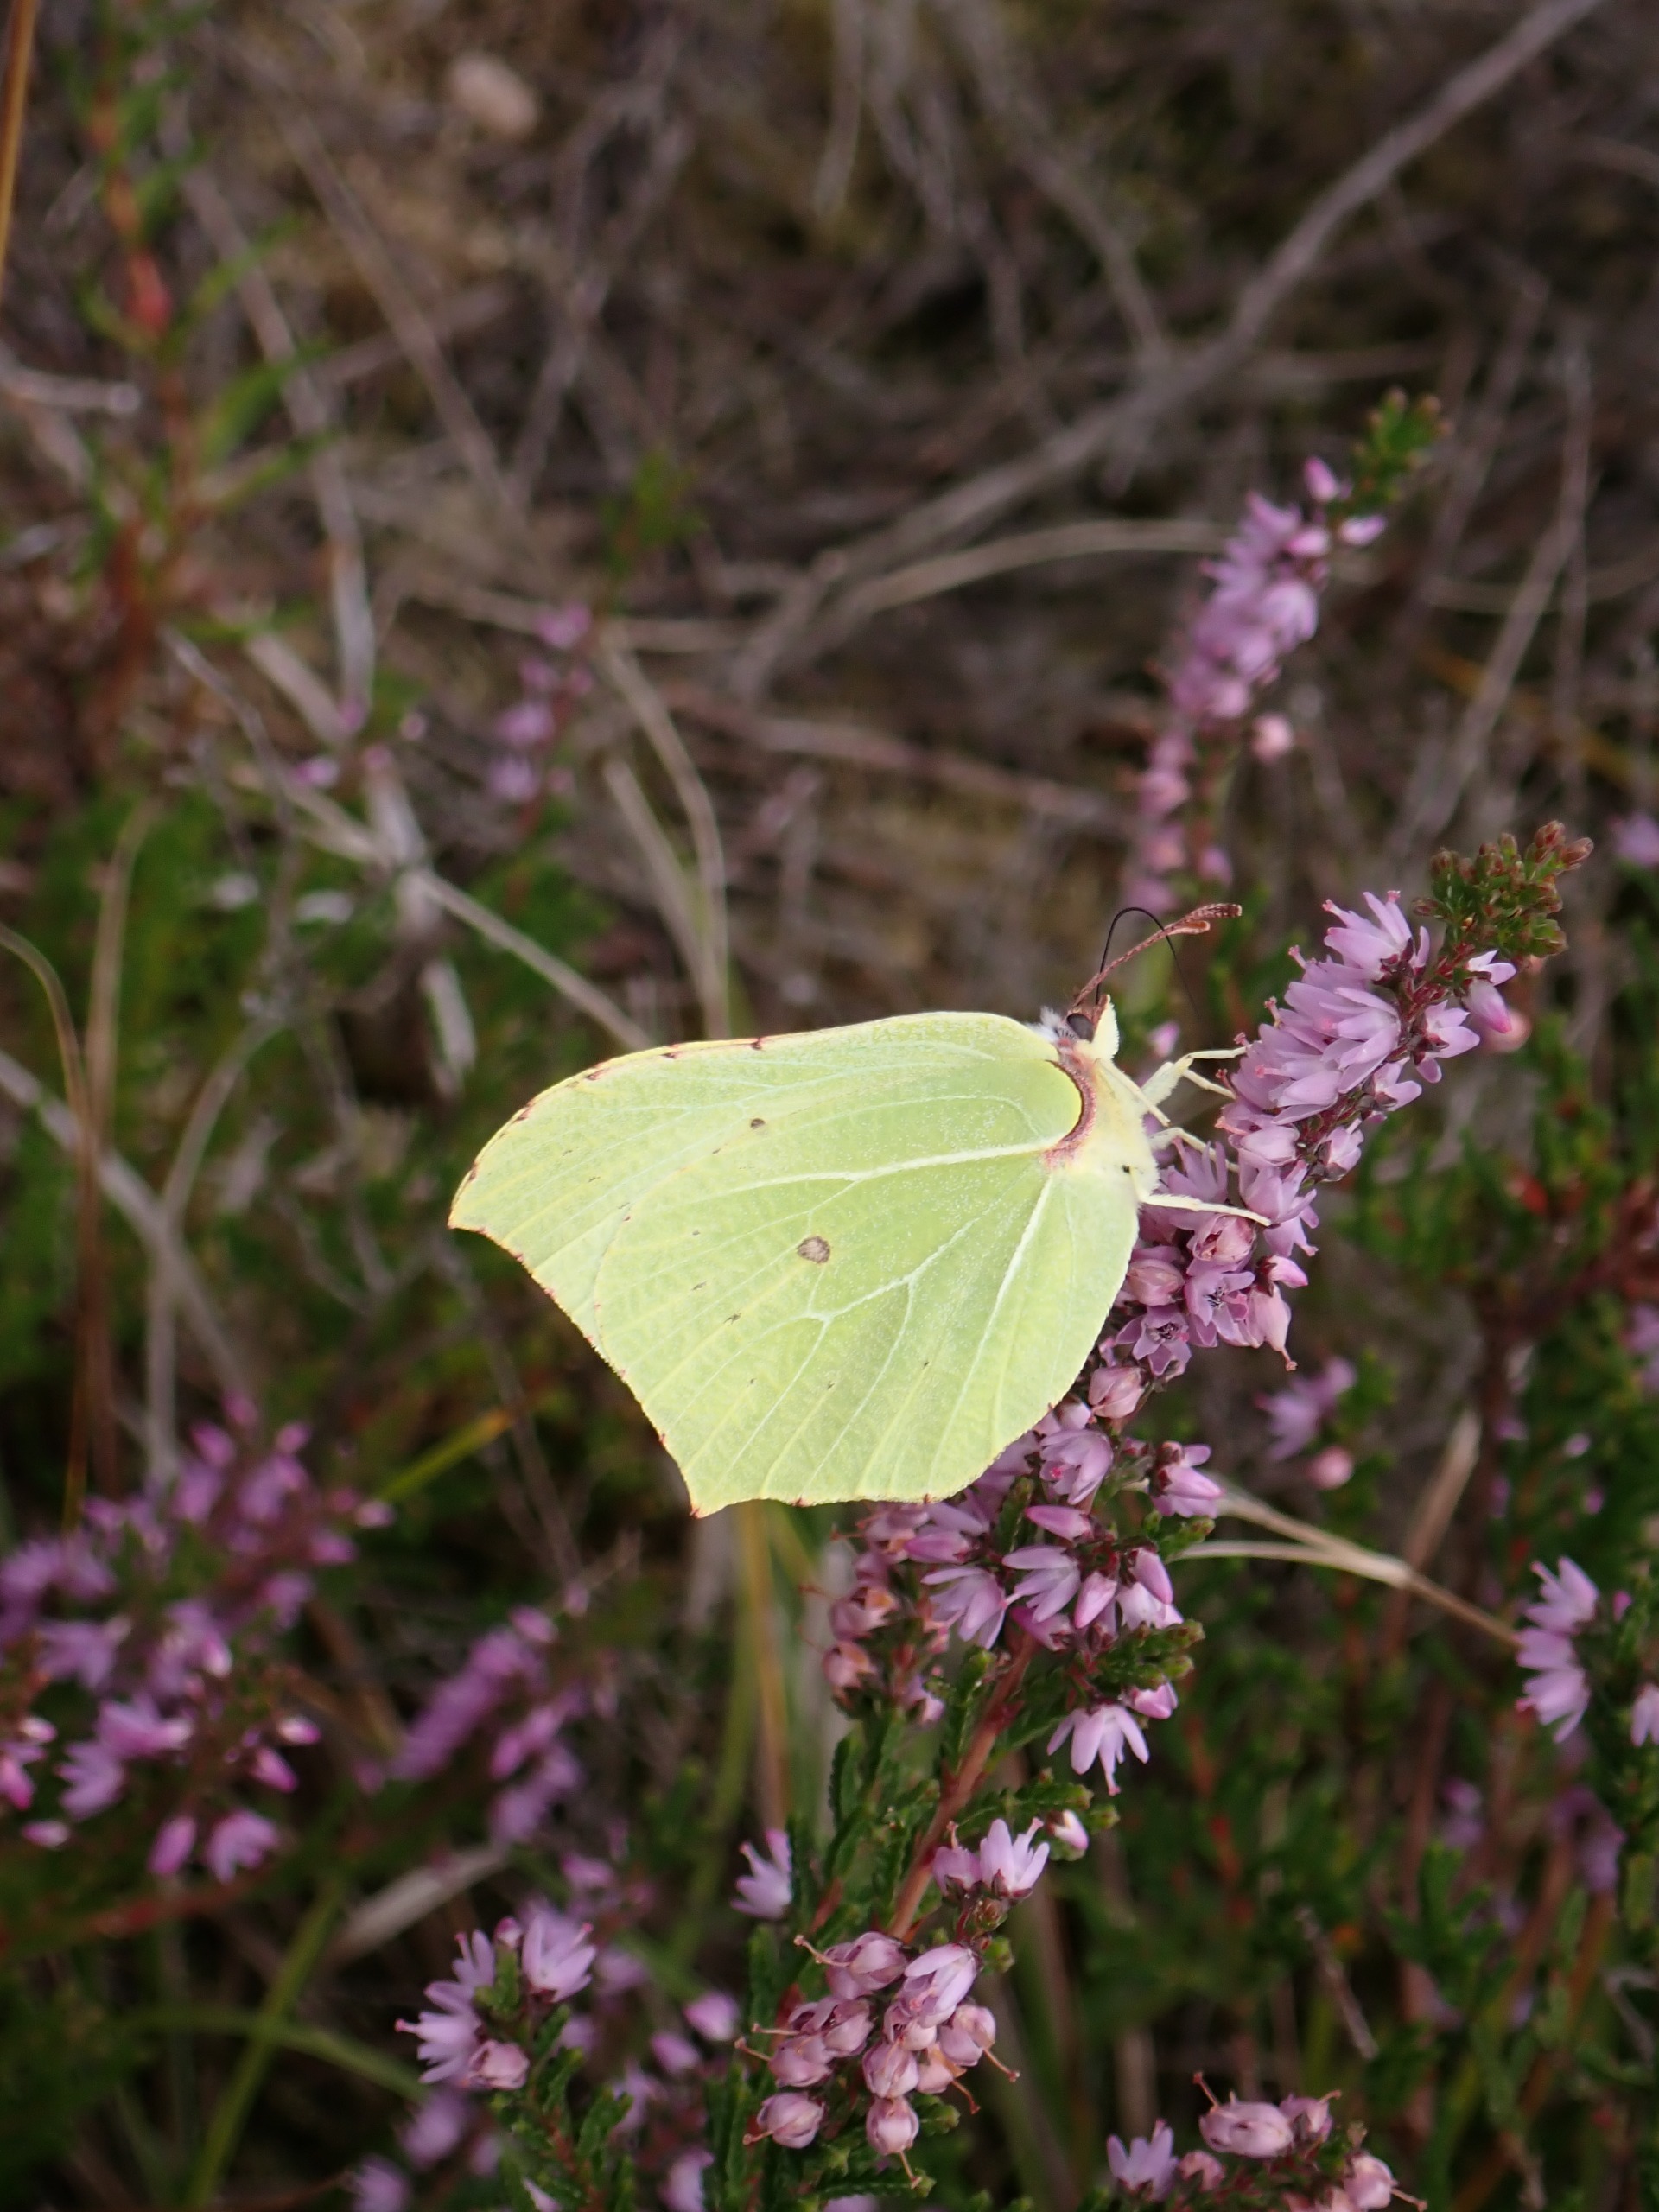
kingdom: Animalia
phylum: Arthropoda
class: Insecta
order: Lepidoptera
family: Pieridae
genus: Gonepteryx
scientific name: Gonepteryx rhamni
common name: Citronsommerfugl
